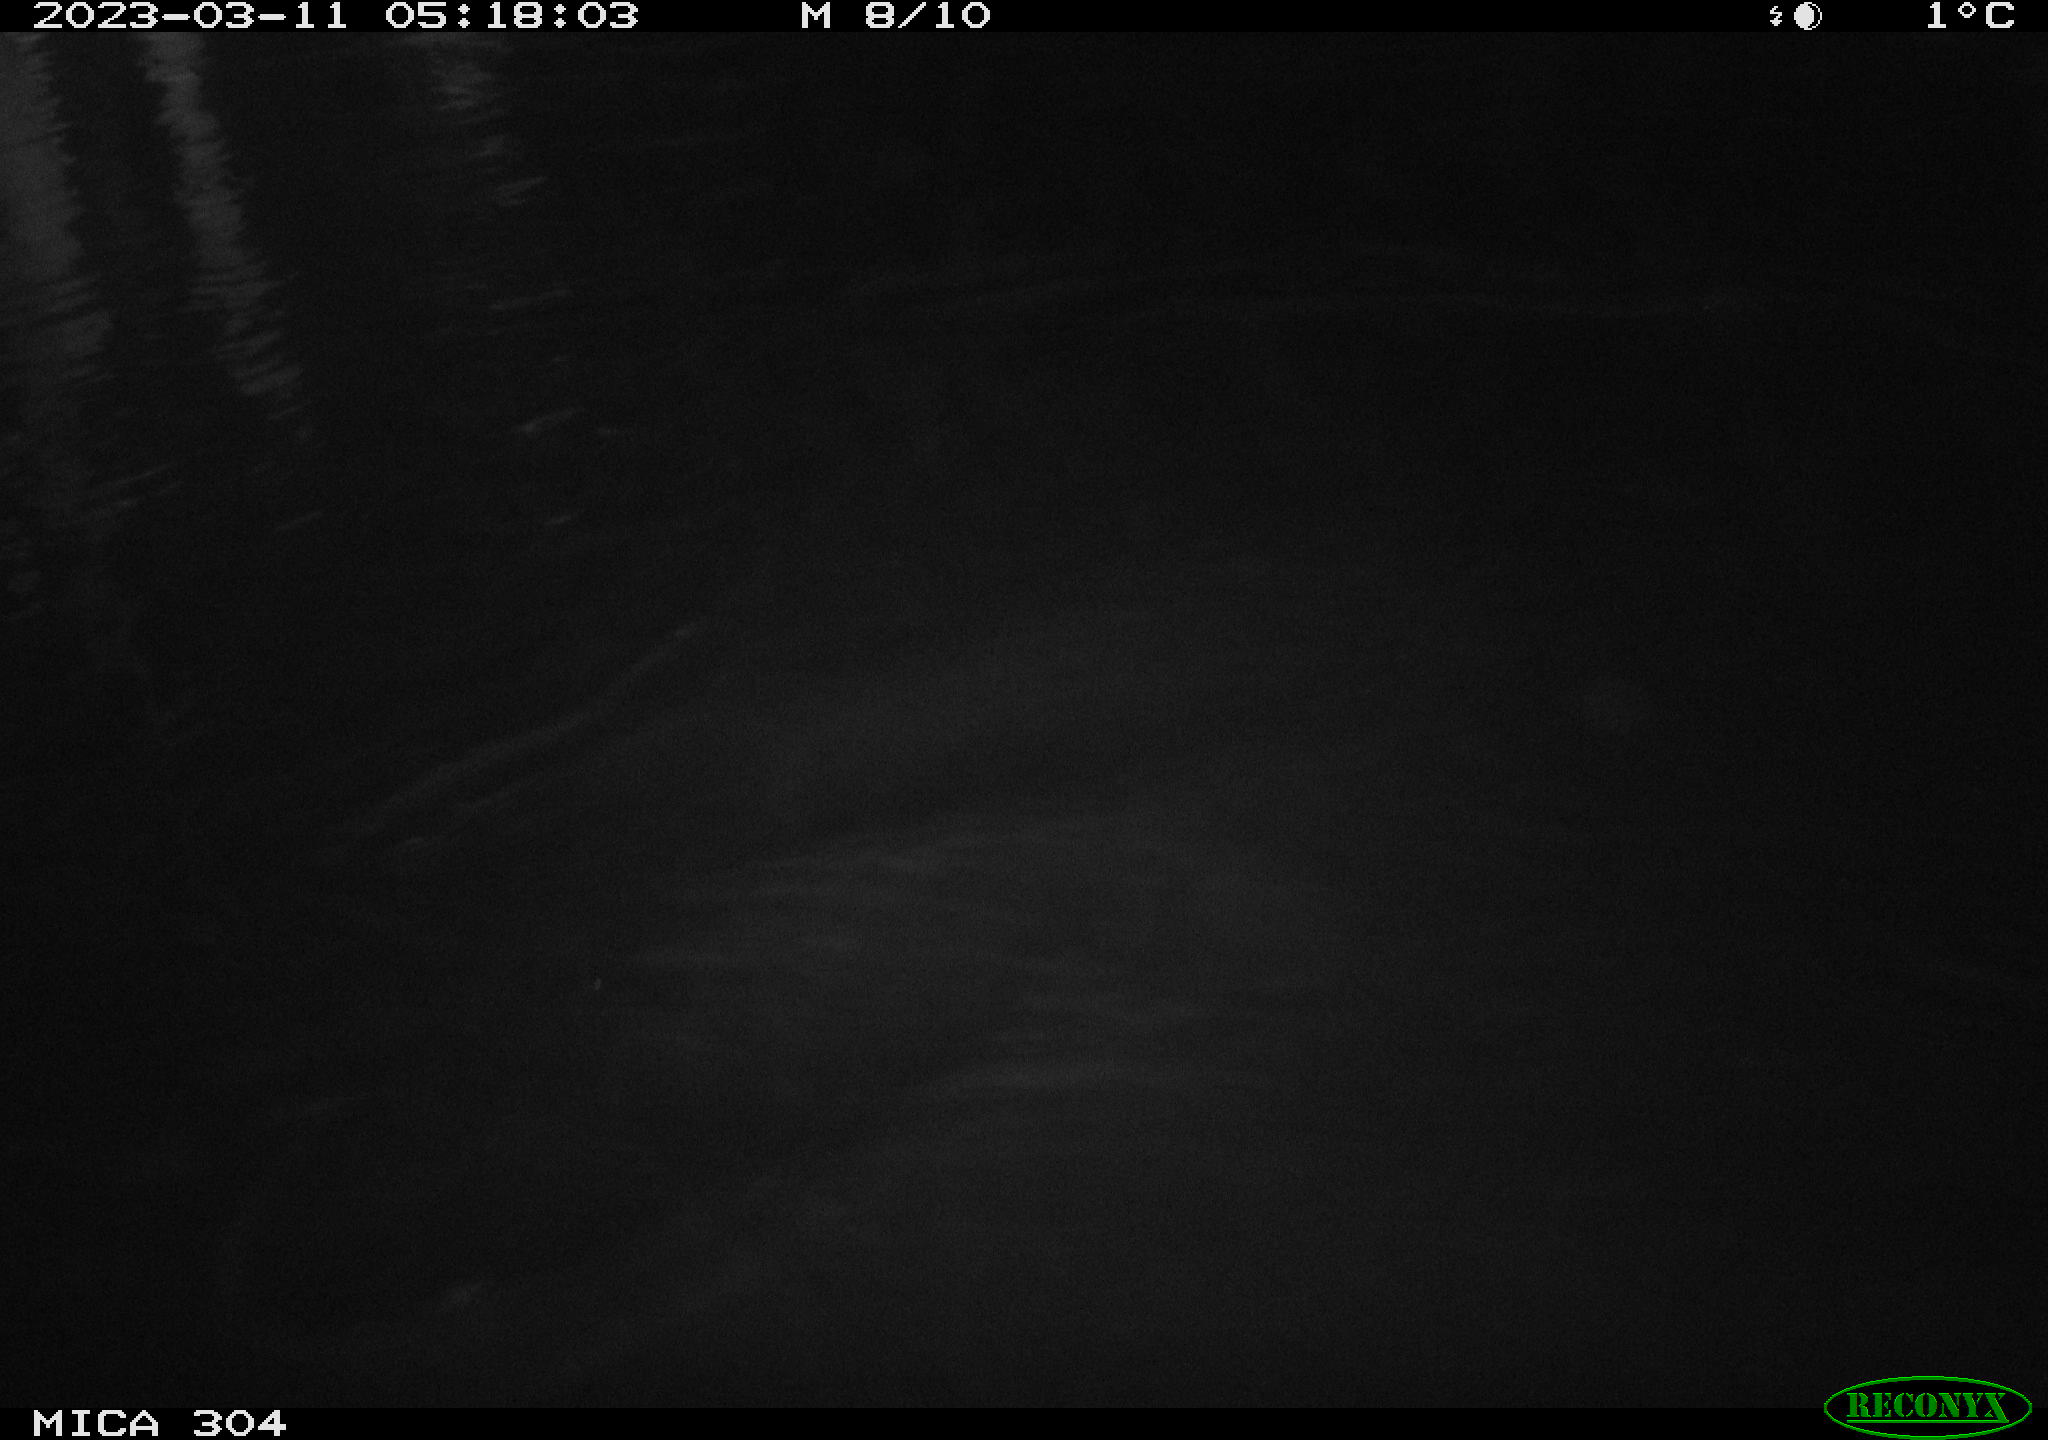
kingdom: Animalia
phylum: Chordata
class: Mammalia
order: Rodentia
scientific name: Rodentia
